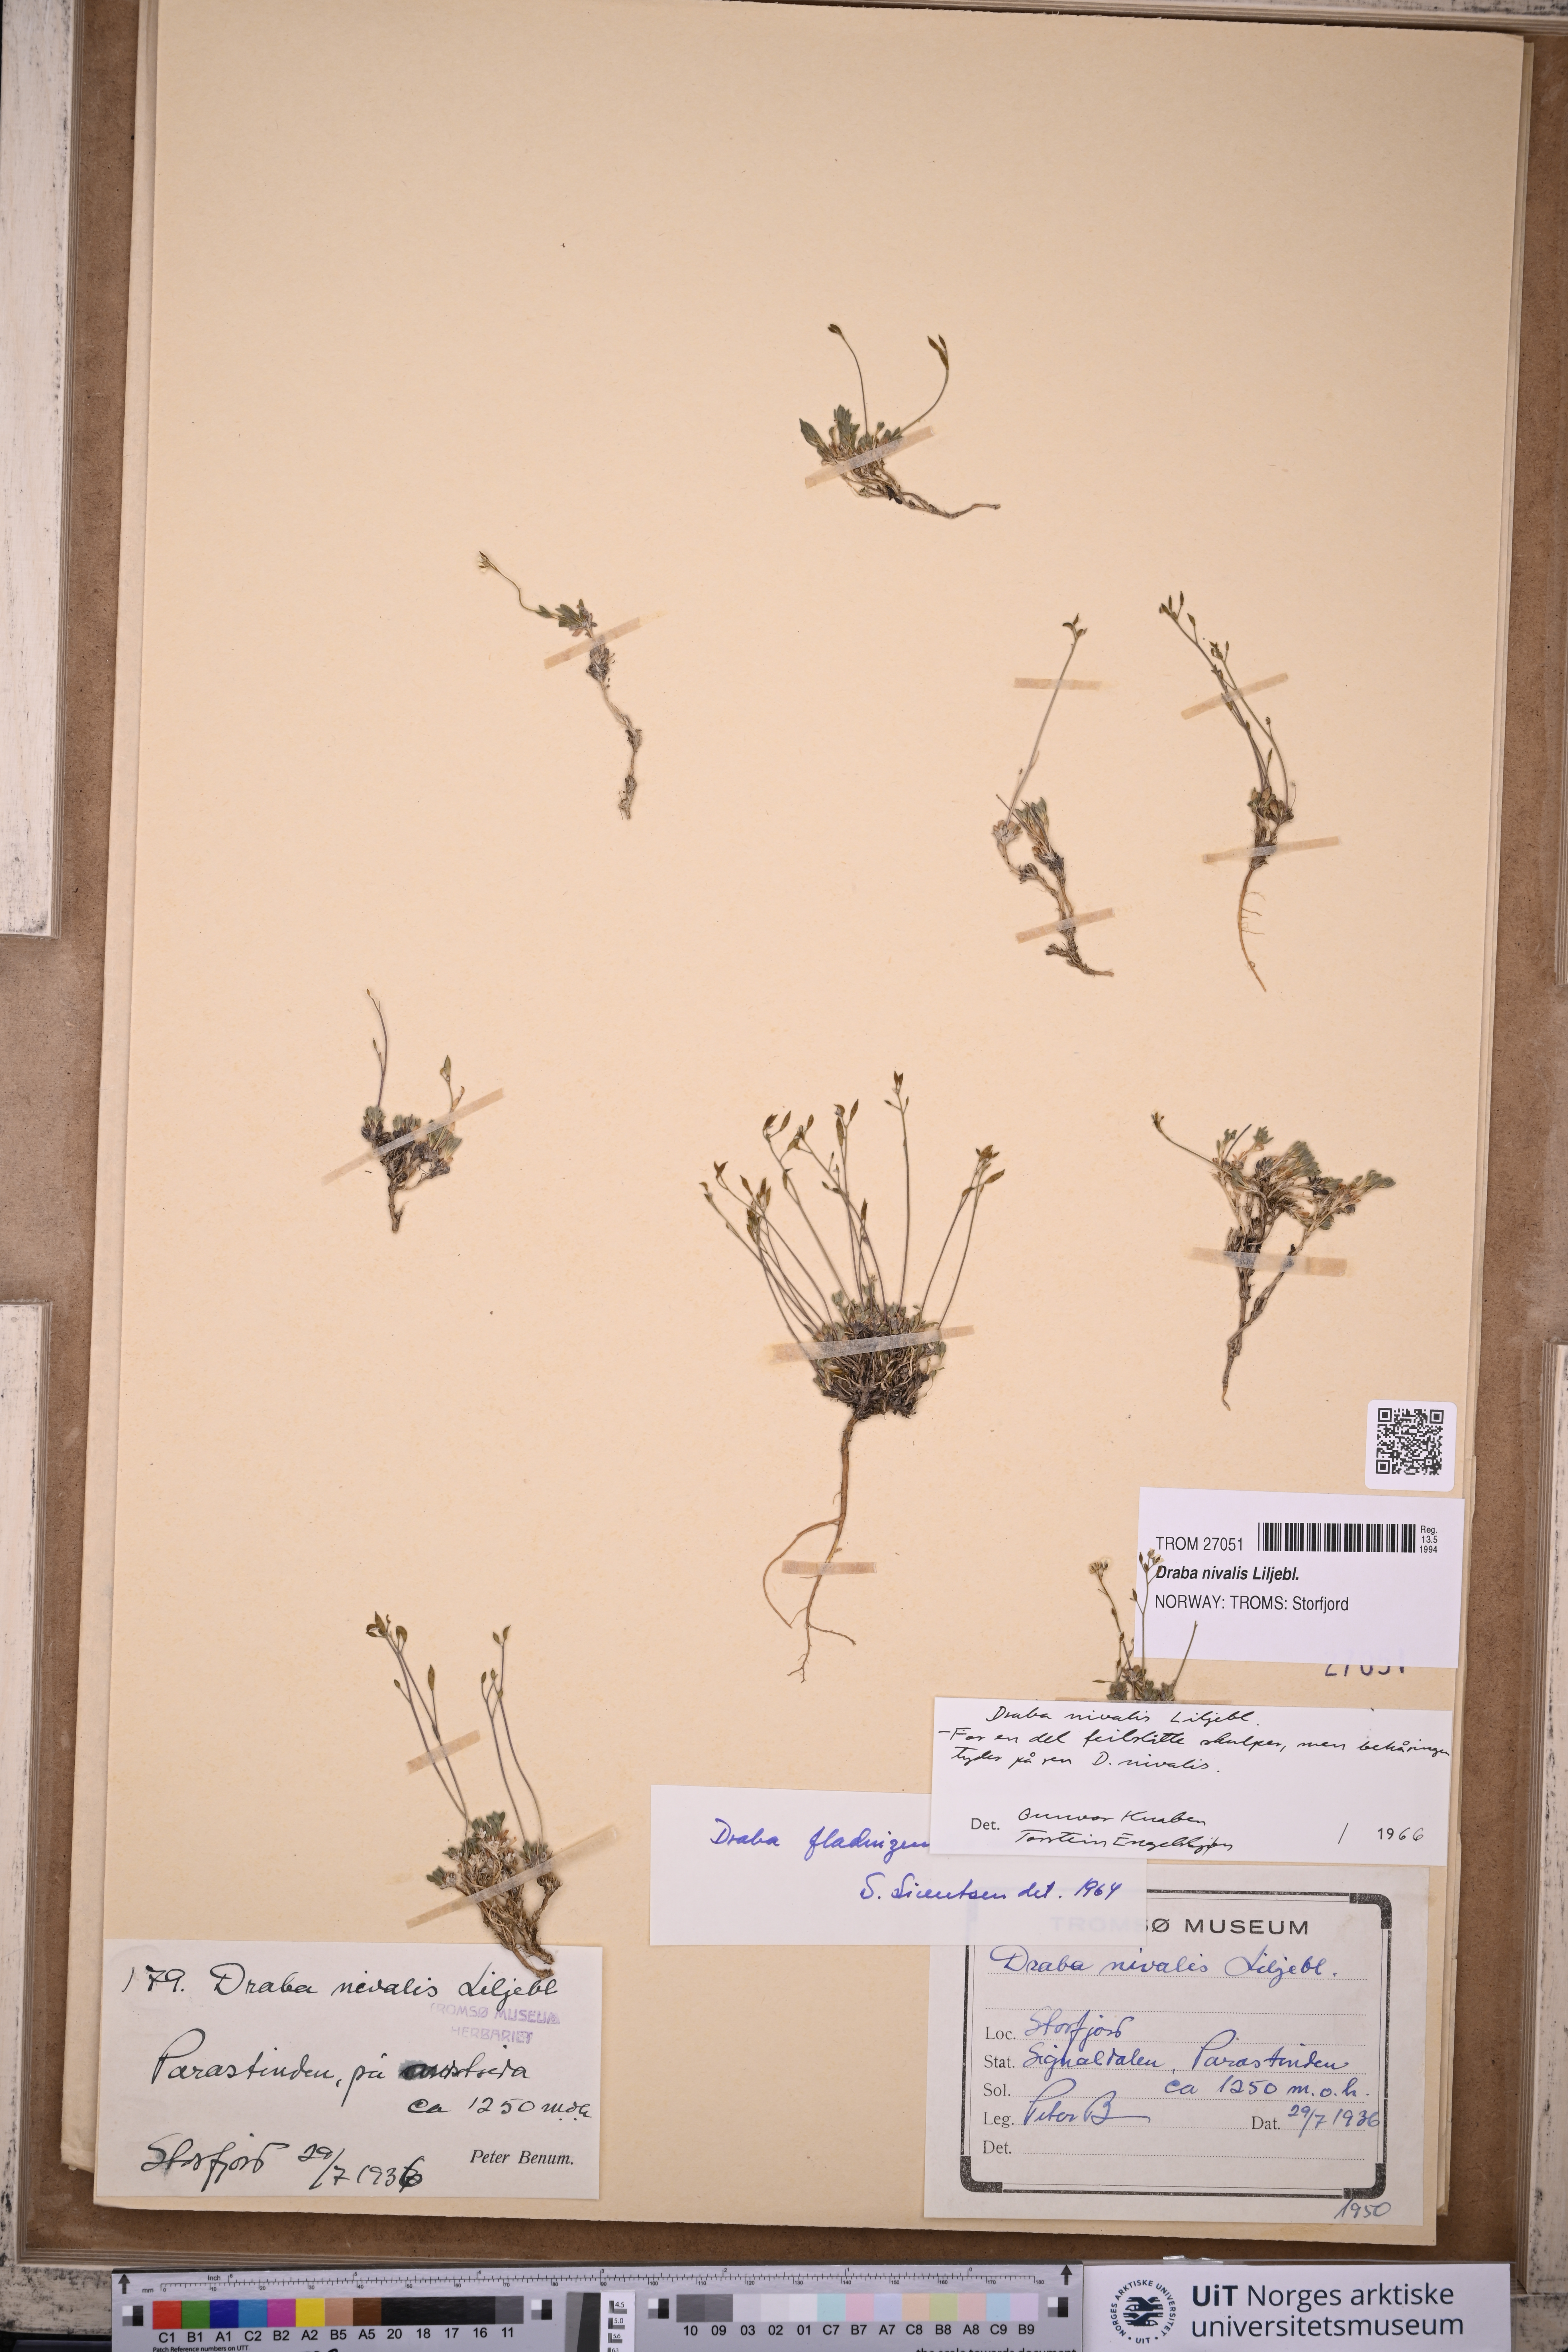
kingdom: Plantae
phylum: Tracheophyta
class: Magnoliopsida
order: Brassicales
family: Brassicaceae
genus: Draba
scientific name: Draba nivalis
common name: Snow draba
